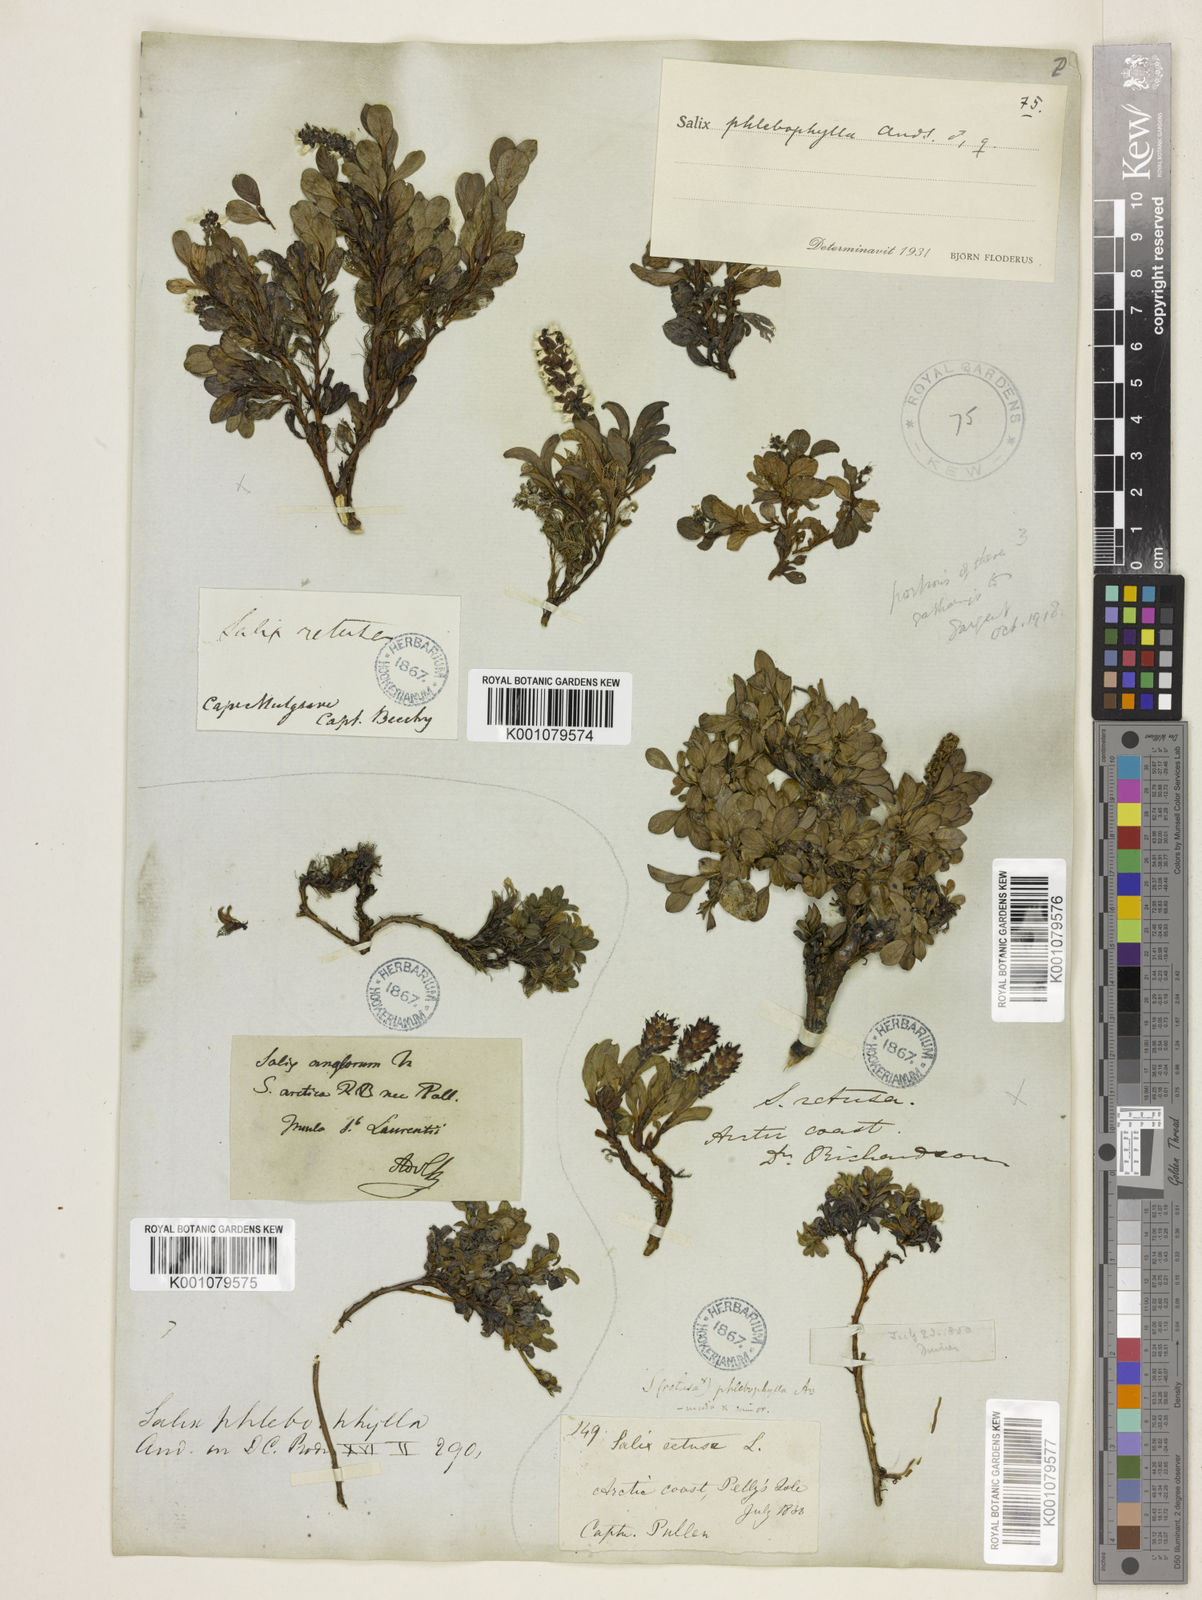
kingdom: Plantae
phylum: Tracheophyta
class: Magnoliopsida
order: Malpighiales
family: Salicaceae
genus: Salix
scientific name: Salix phlebophylla
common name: Skeleton-leaved willow
